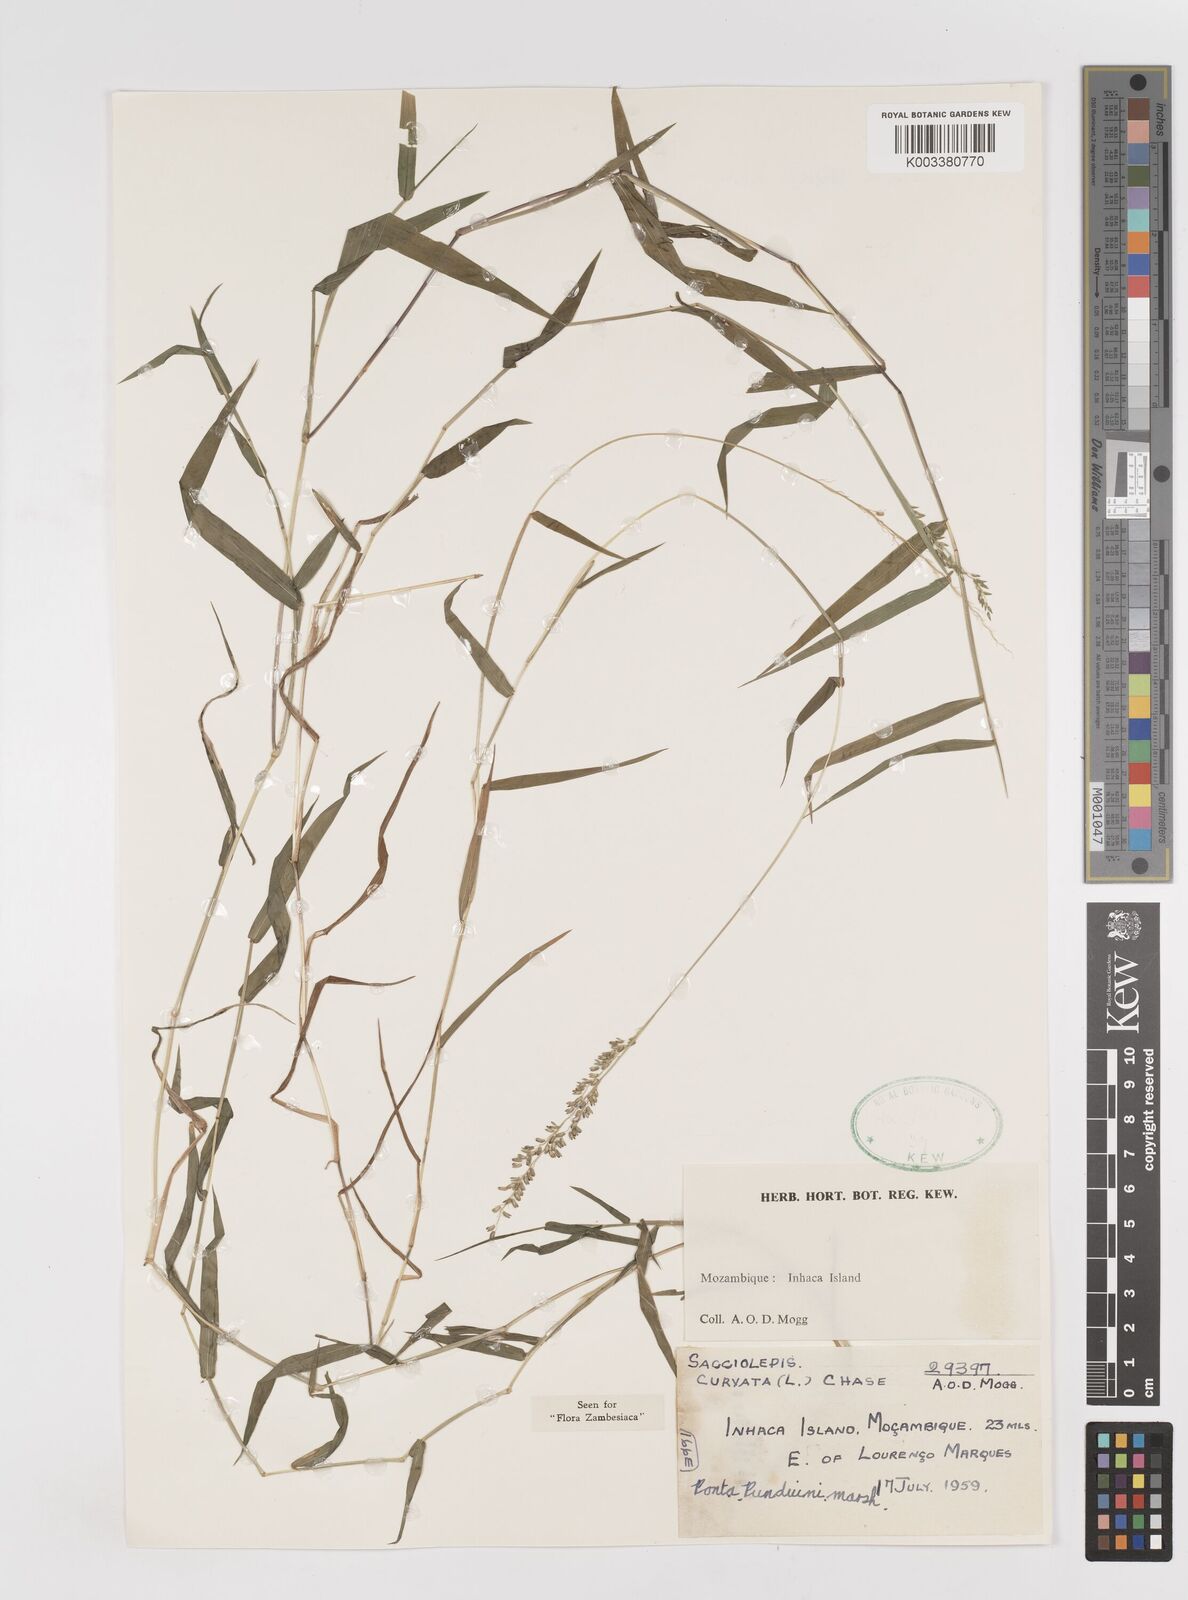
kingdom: Plantae
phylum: Tracheophyta
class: Liliopsida
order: Poales
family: Poaceae
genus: Sacciolepis
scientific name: Sacciolepis curvata
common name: Forest hood grass
